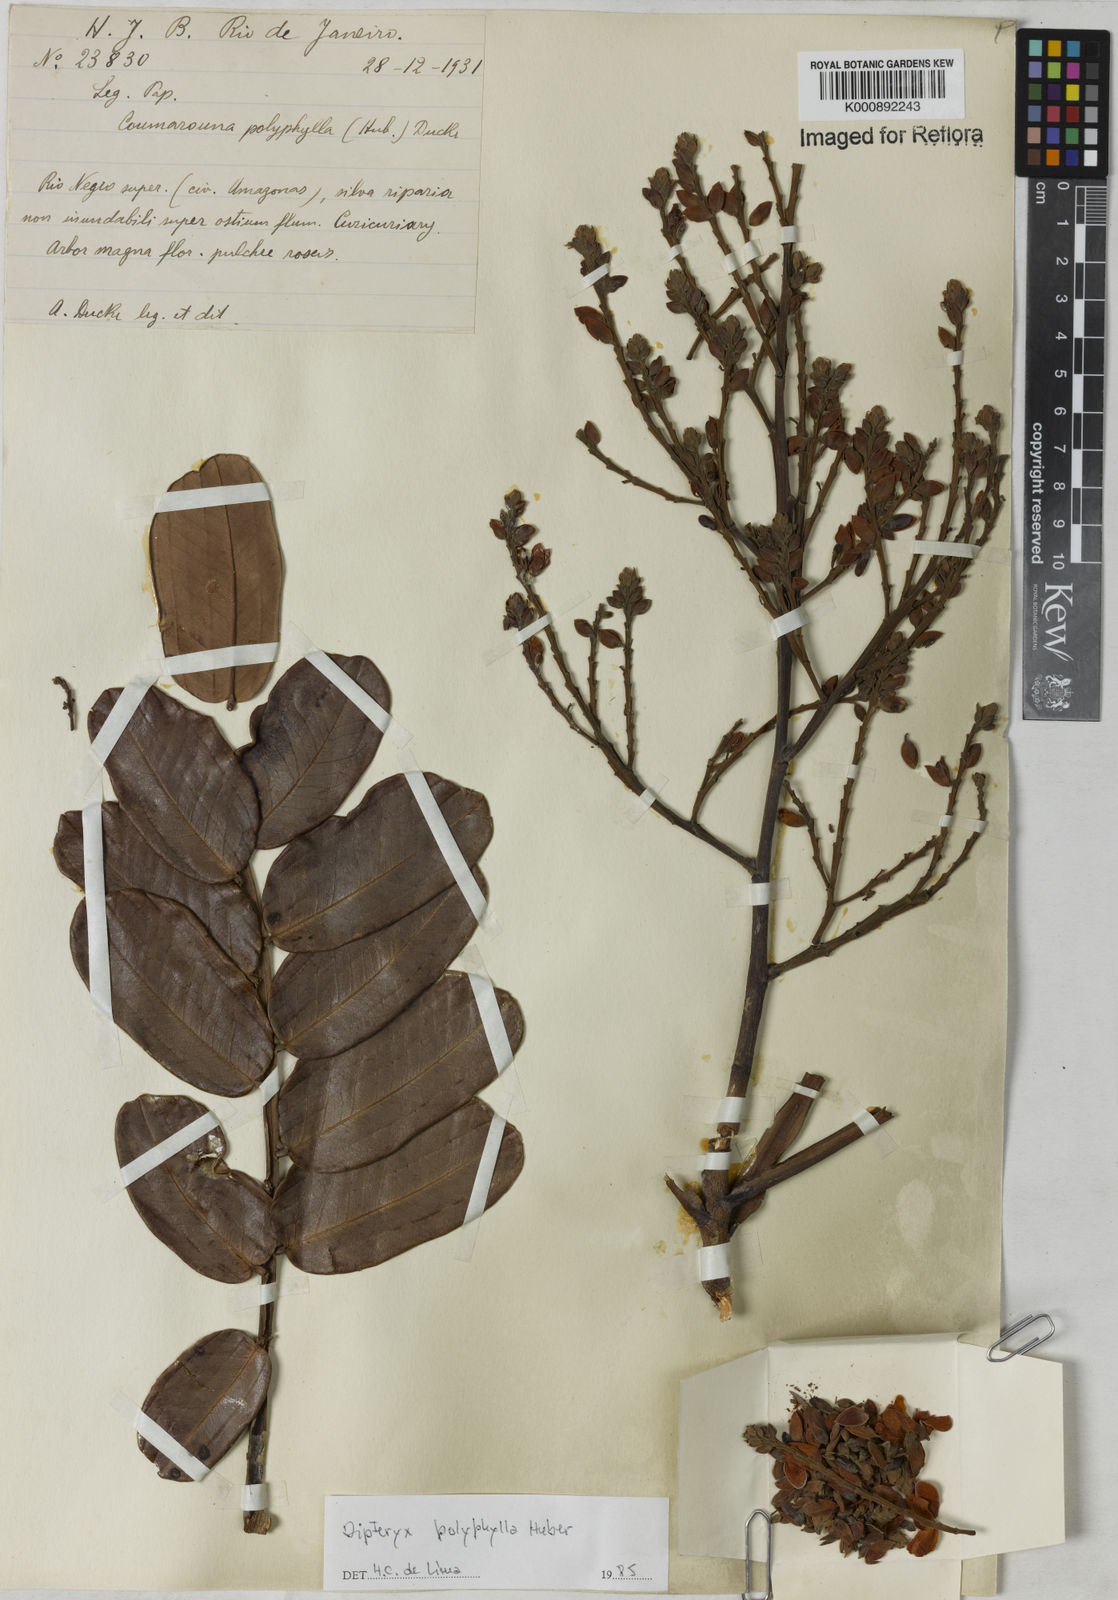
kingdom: Plantae
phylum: Tracheophyta
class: Magnoliopsida
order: Fabales
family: Fabaceae
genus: Dipteryx
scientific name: Dipteryx polyphylla
